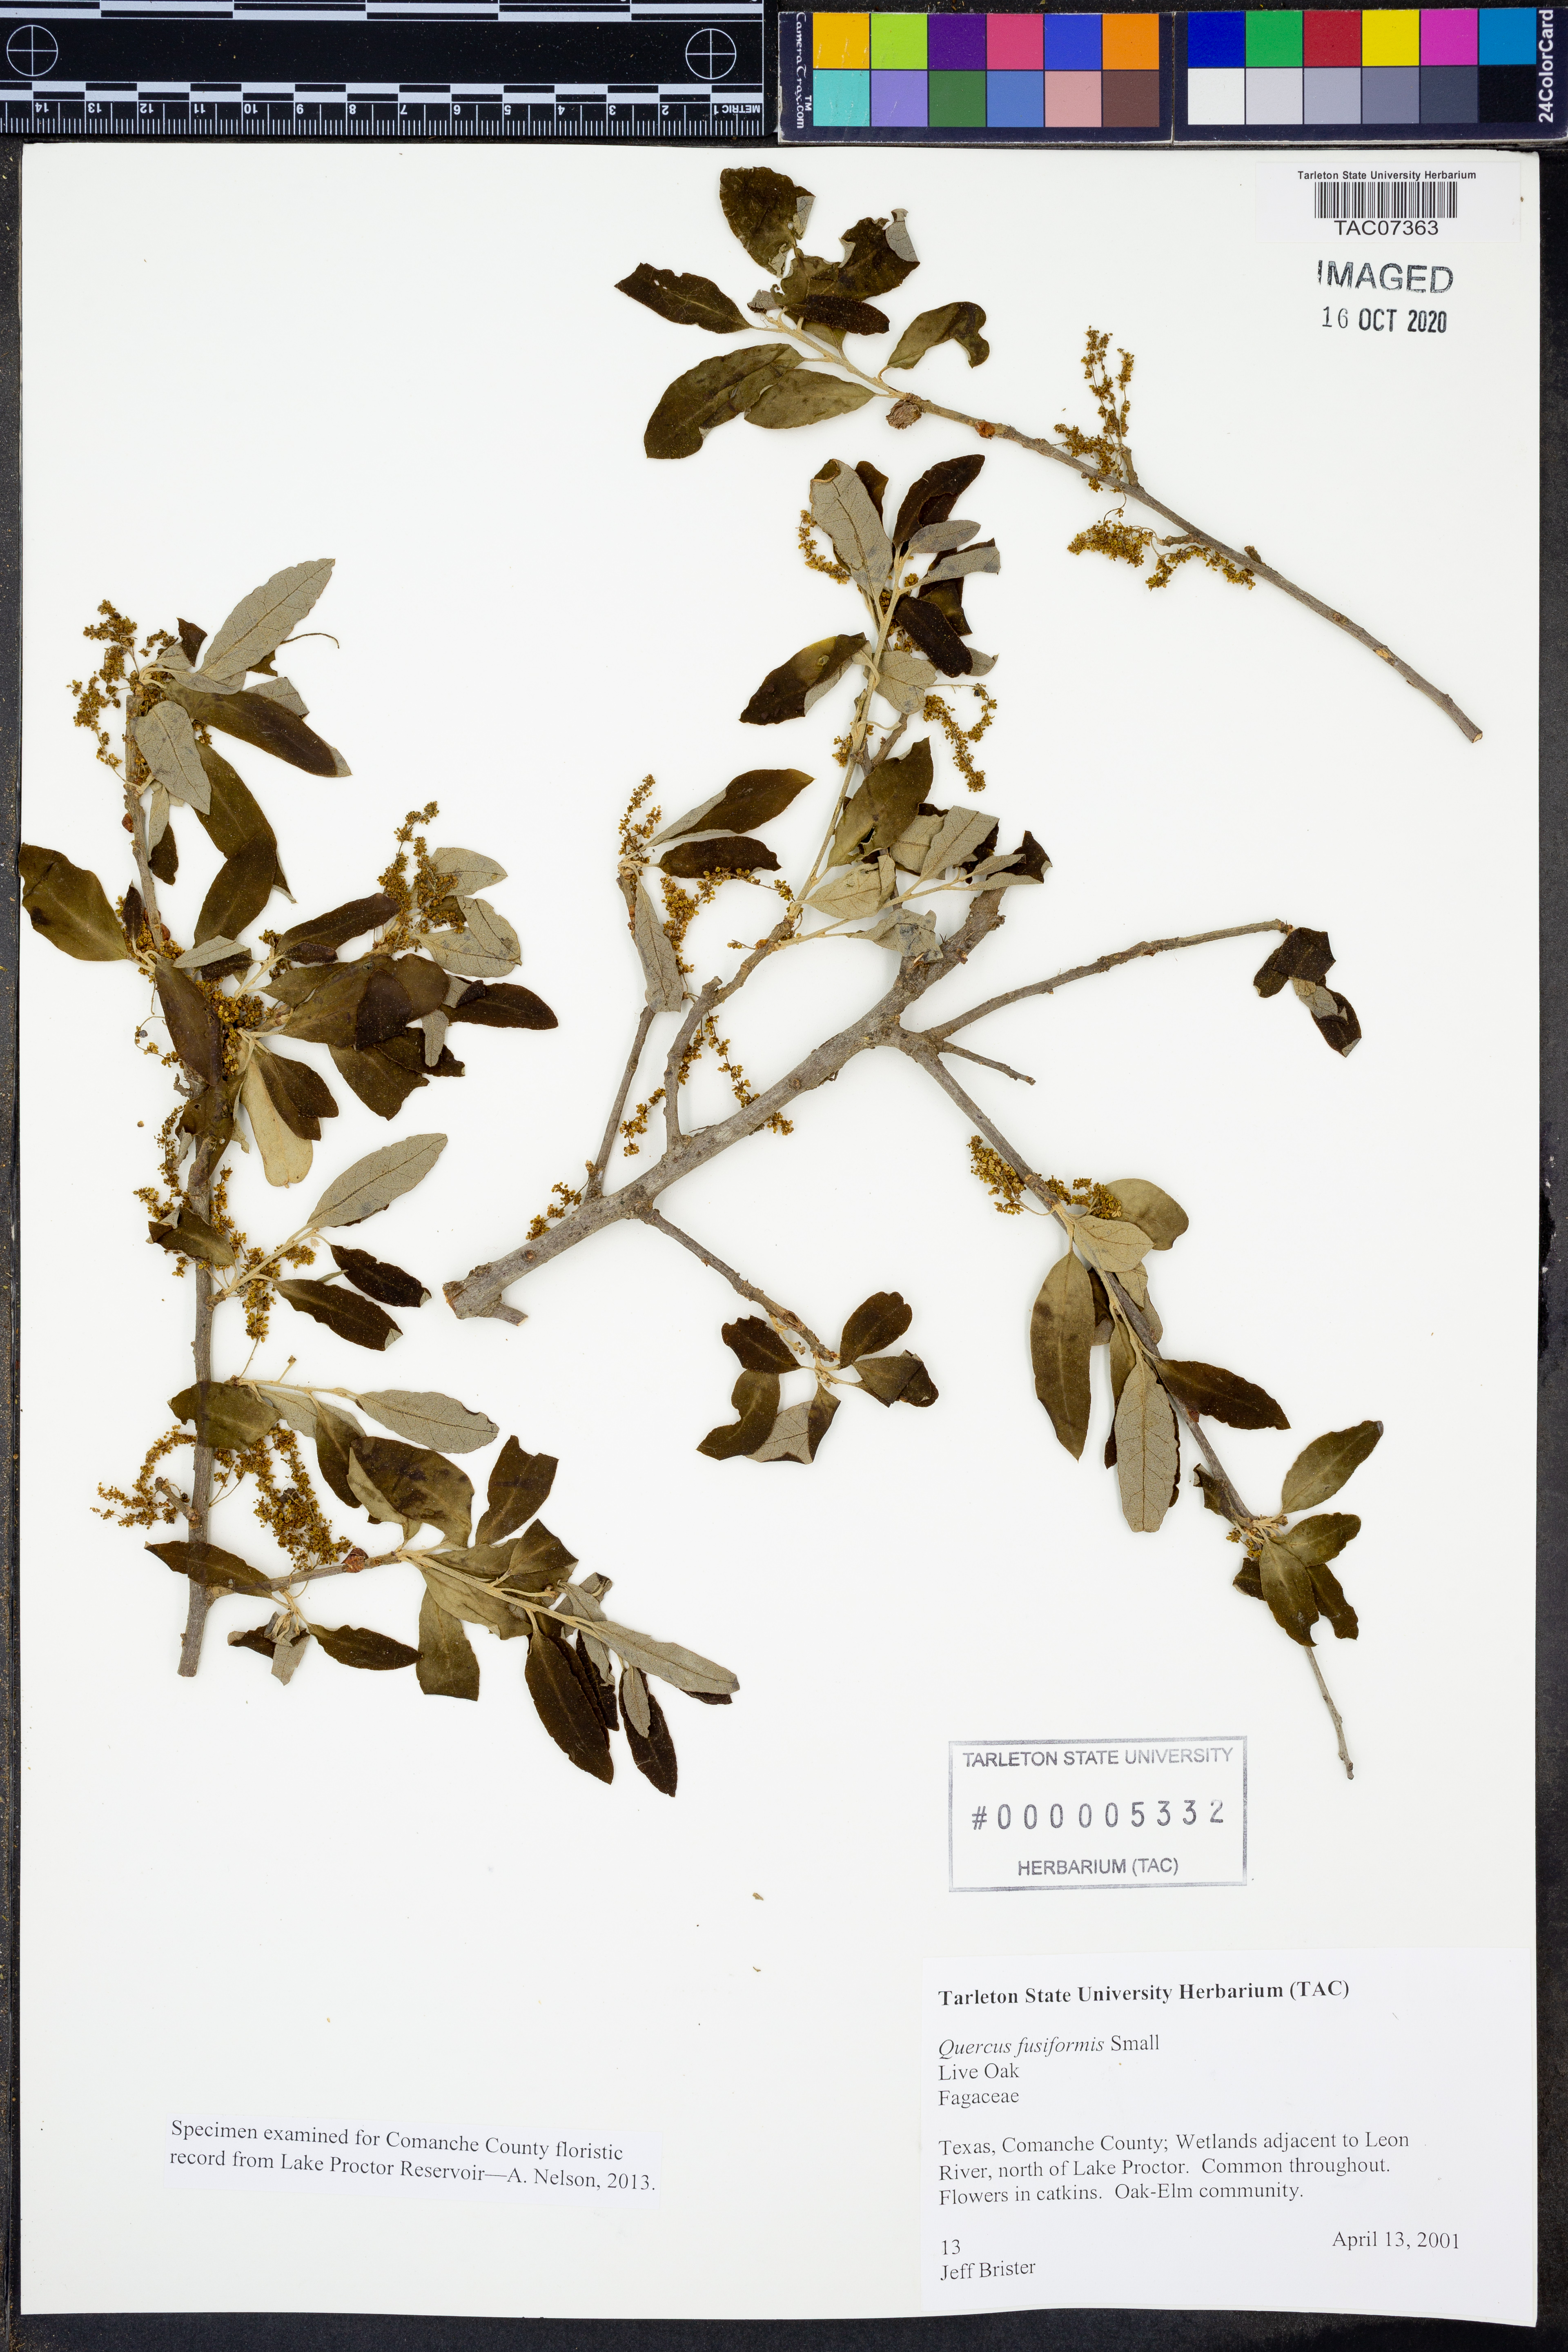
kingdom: Plantae
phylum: Tracheophyta
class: Magnoliopsida
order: Fagales
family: Fagaceae
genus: Quercus
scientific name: Quercus fusiformis
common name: Texas live oak
